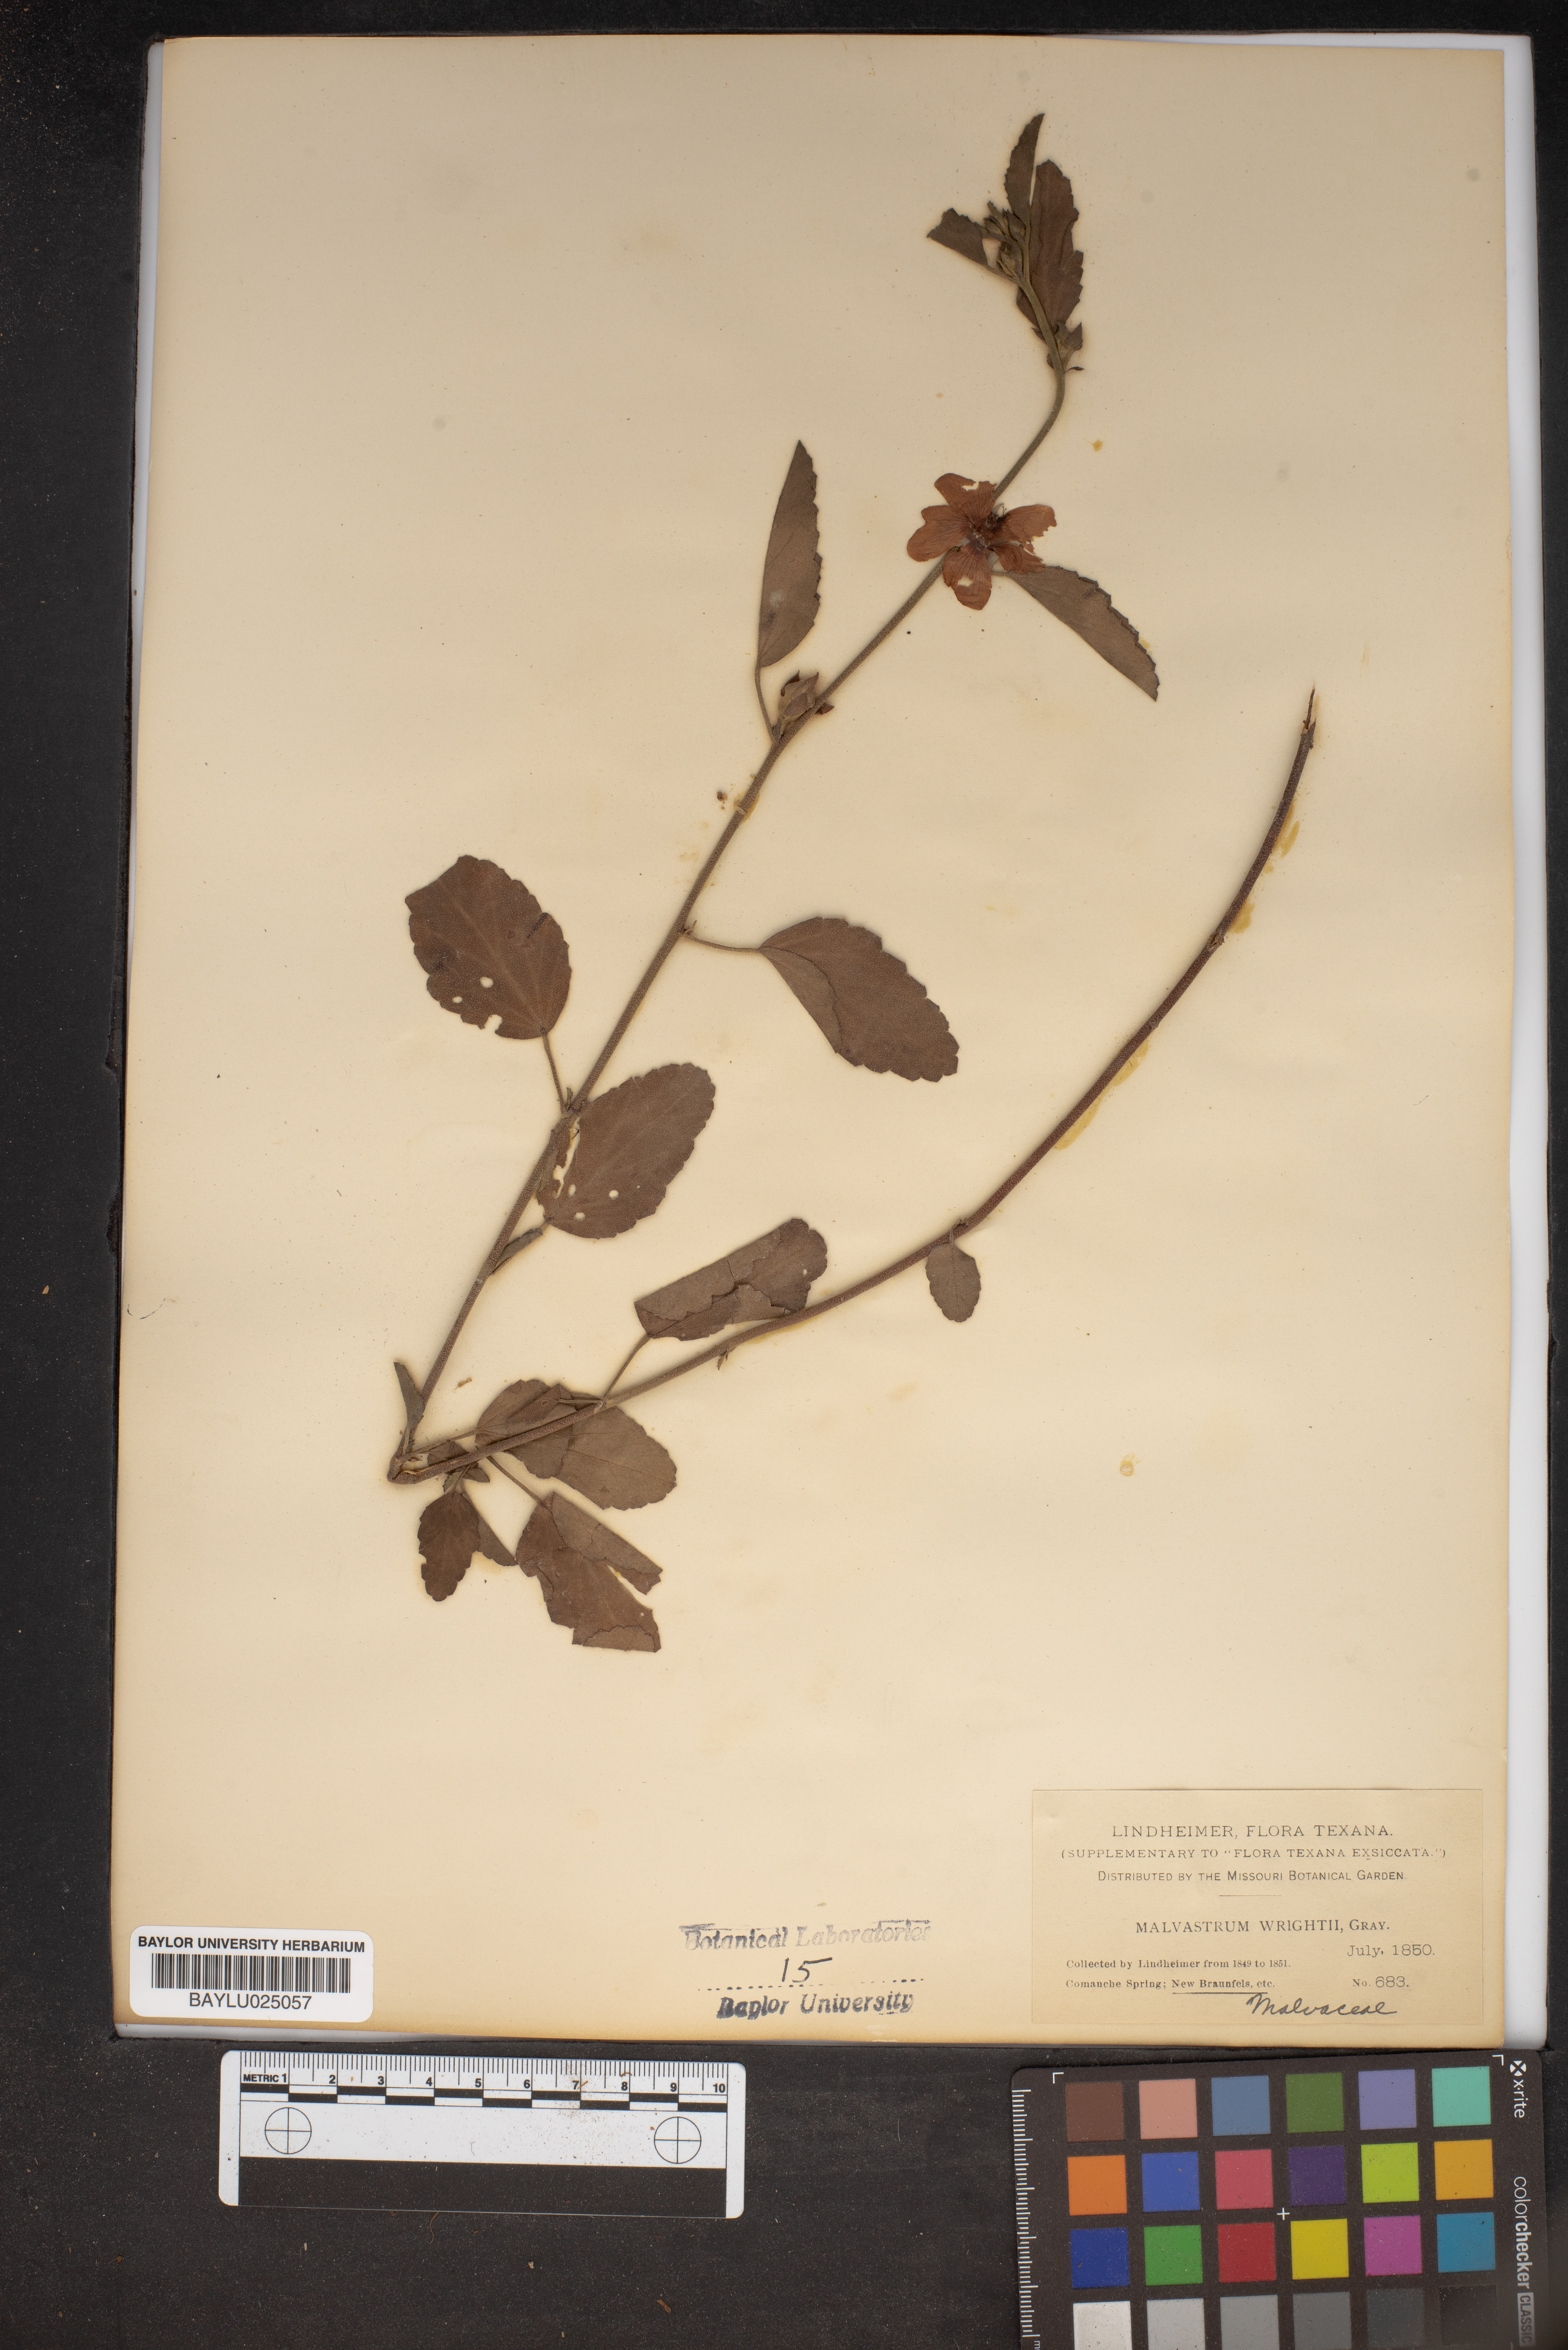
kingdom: Plantae
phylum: Tracheophyta
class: Magnoliopsida
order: Malvales
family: Malvaceae
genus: Malvastrum
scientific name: Malvastrum aurantiacum
